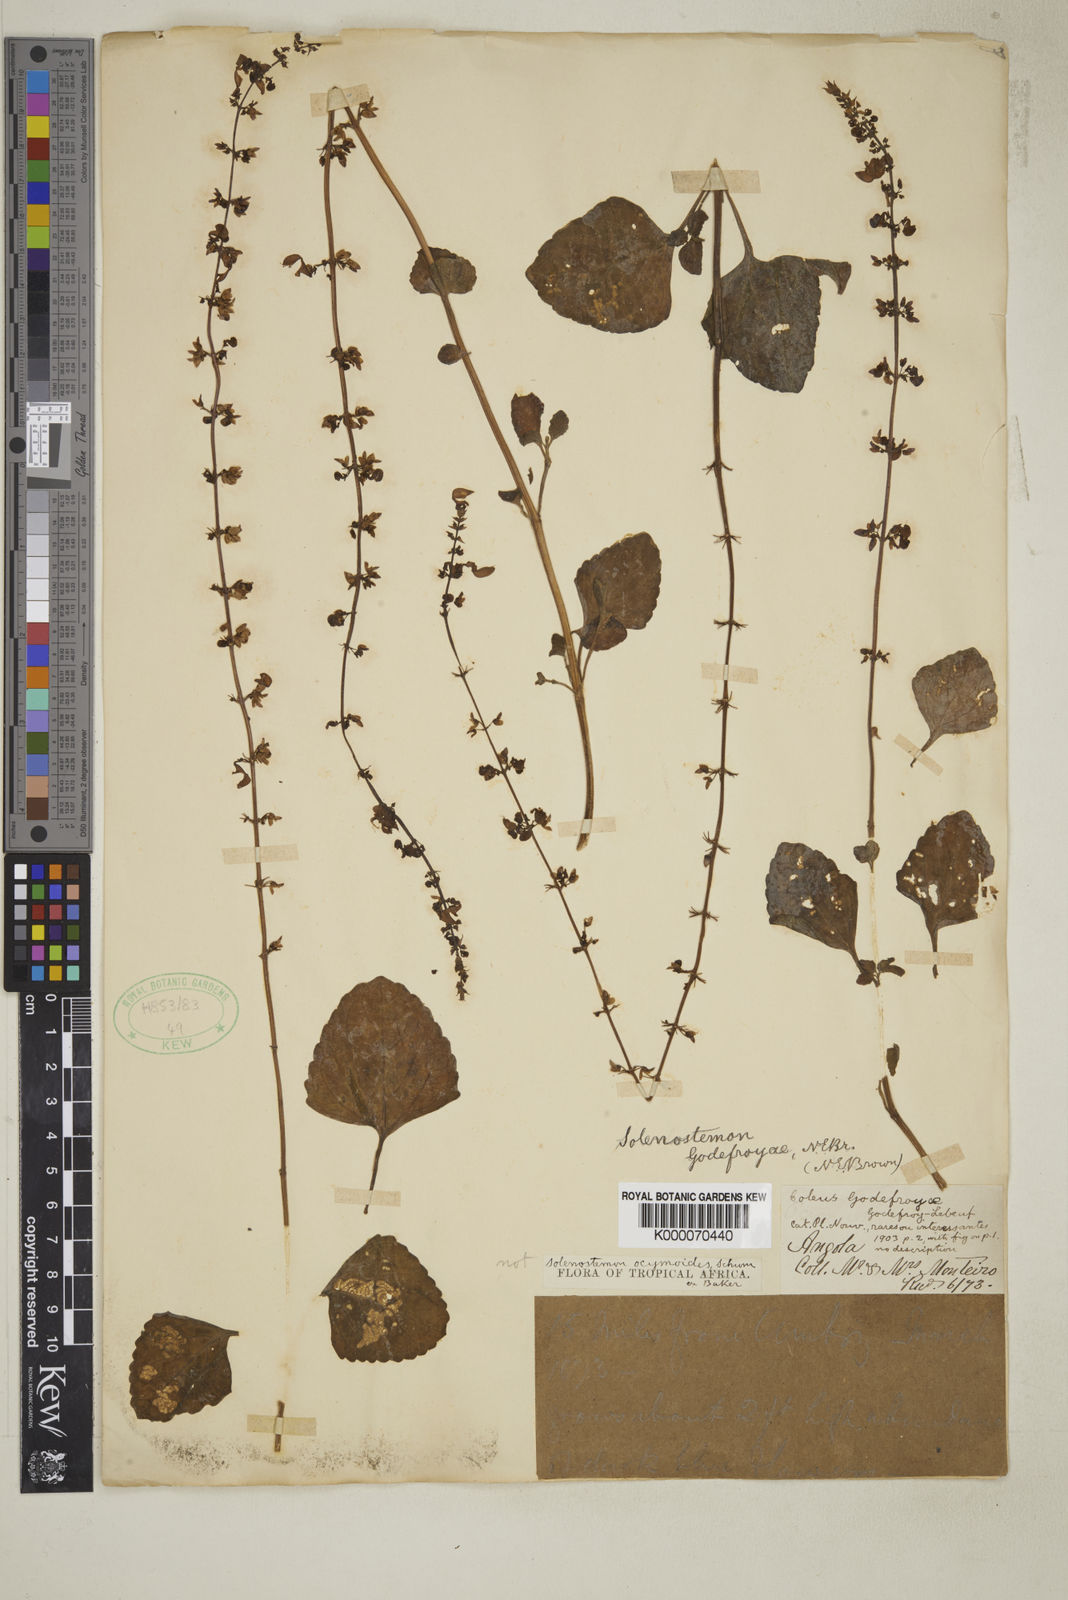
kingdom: Plantae
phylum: Tracheophyta
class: Magnoliopsida
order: Lamiales
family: Lamiaceae
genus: Coleus
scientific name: Coleus monostachyus
